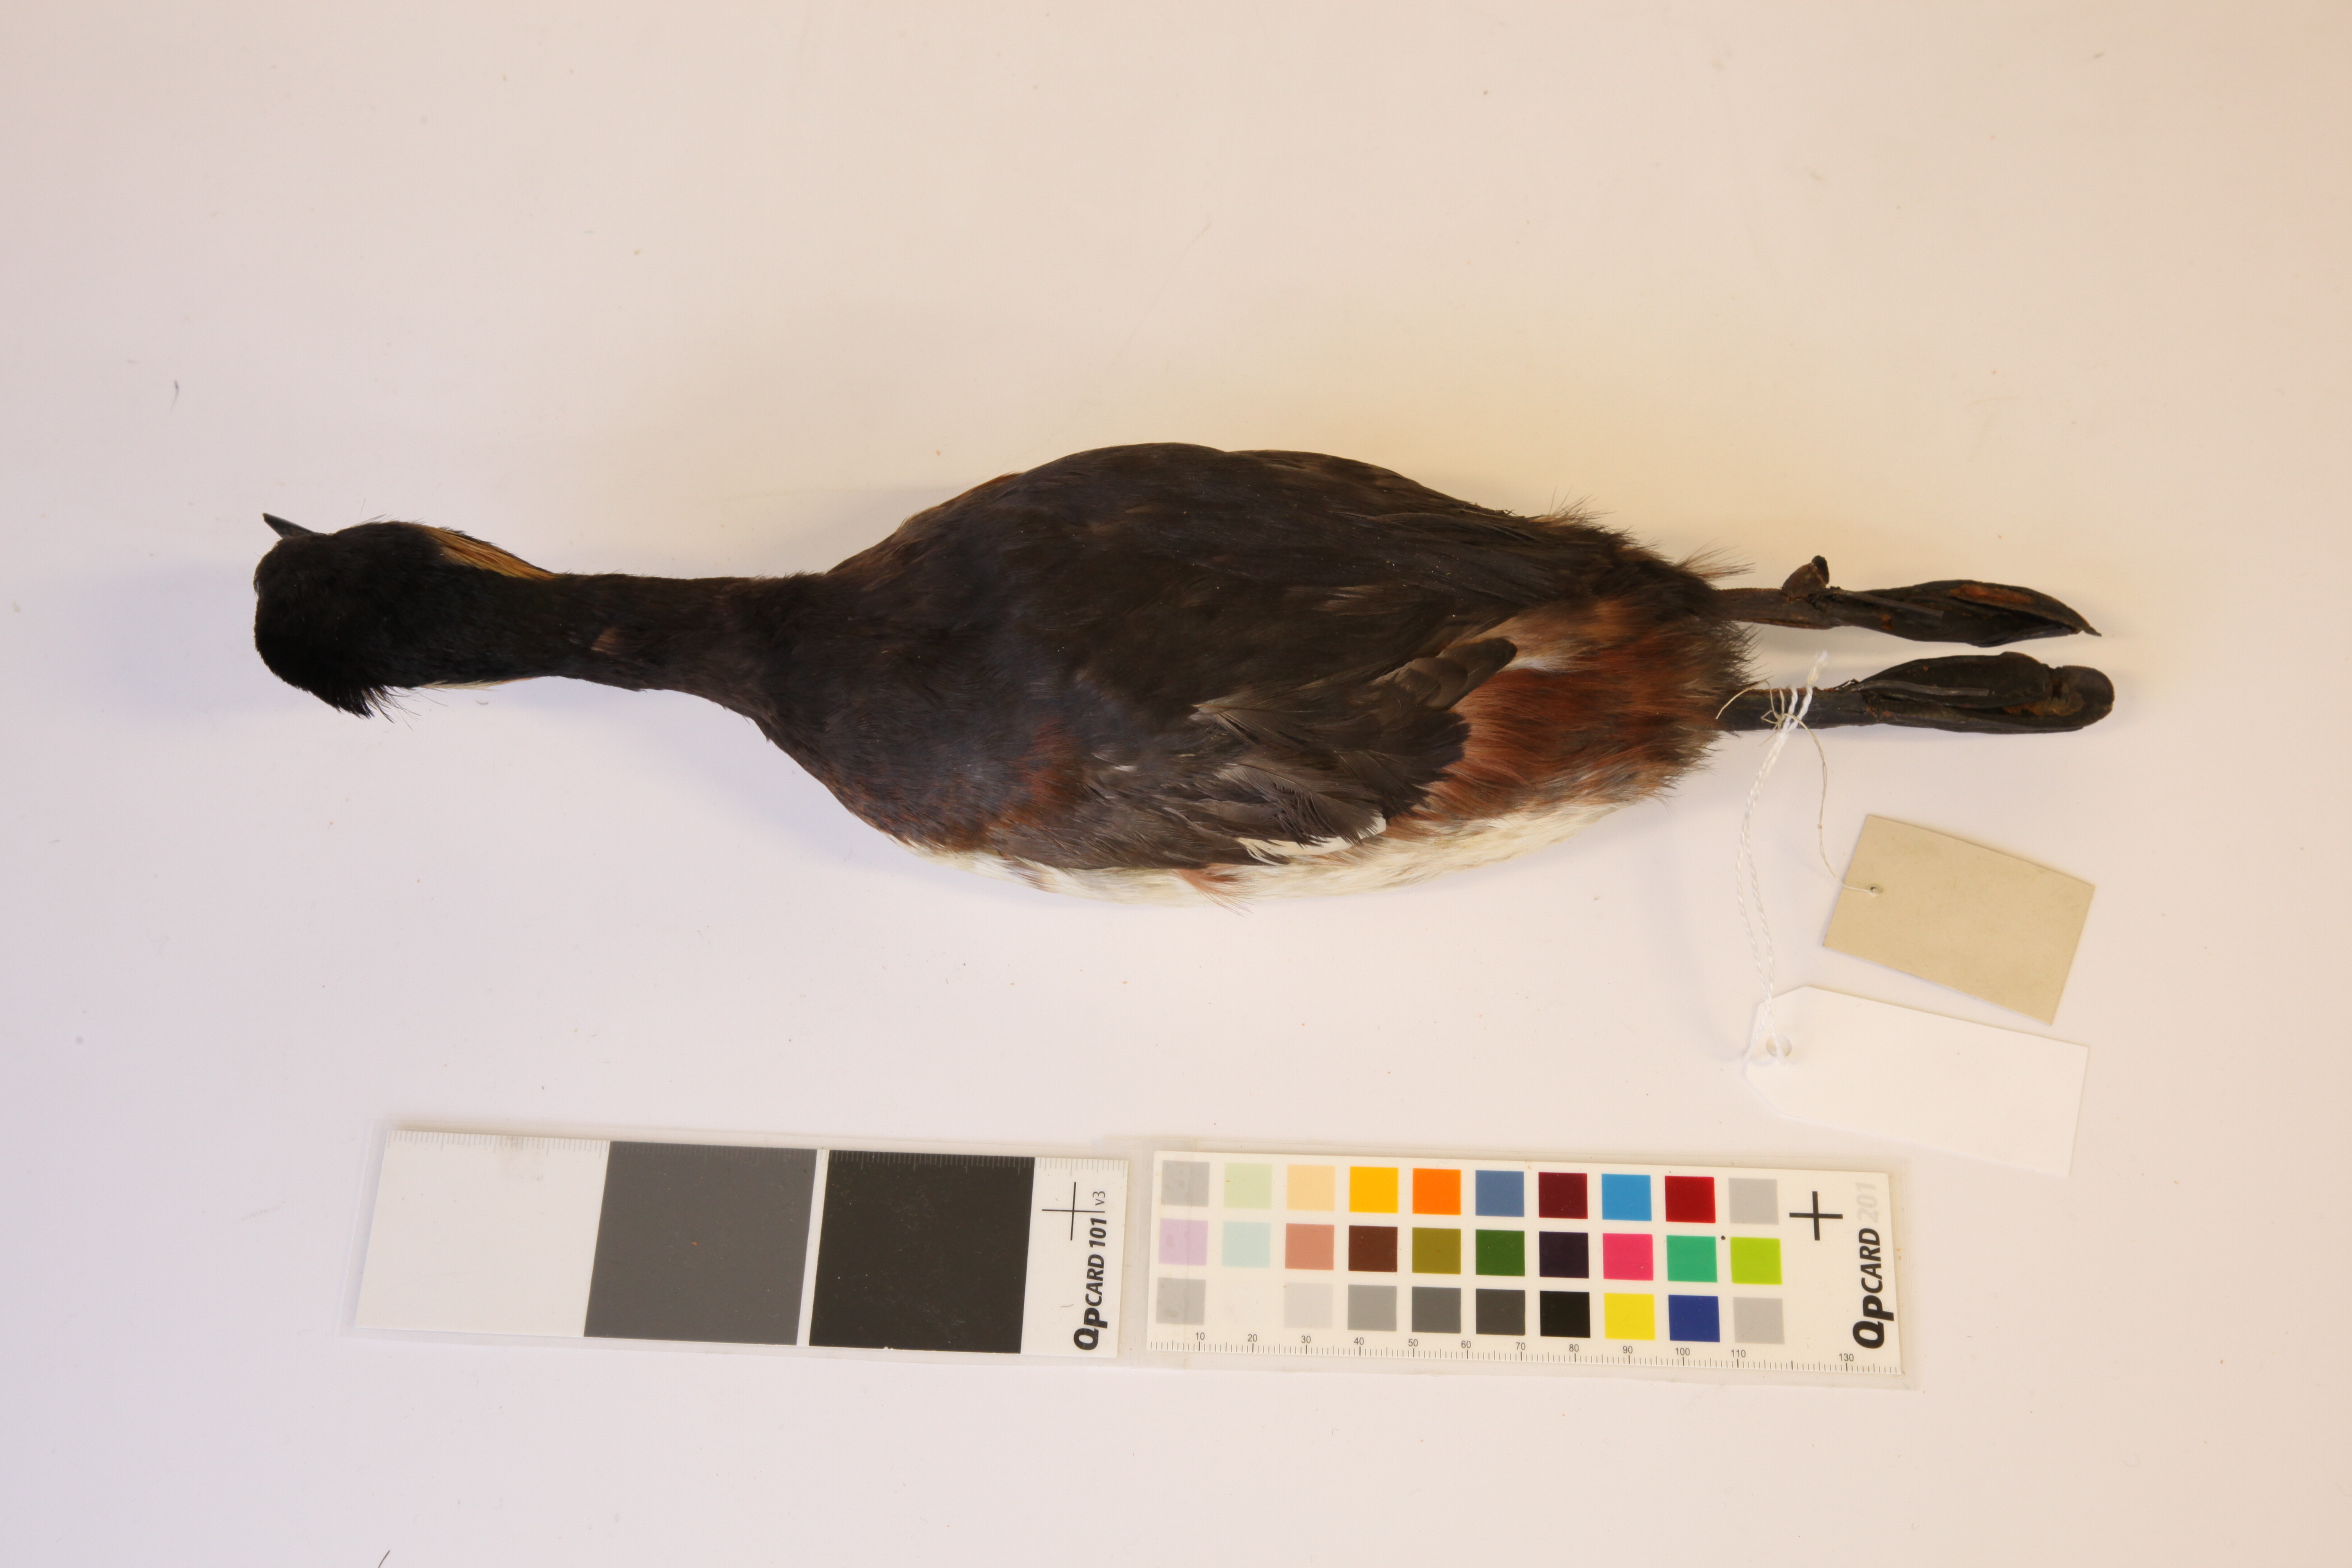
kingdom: Animalia
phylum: Chordata
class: Aves
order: Podicipediformes
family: Podicipedidae
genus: Podiceps
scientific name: Podiceps nigricollis
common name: Black-necked grebe
